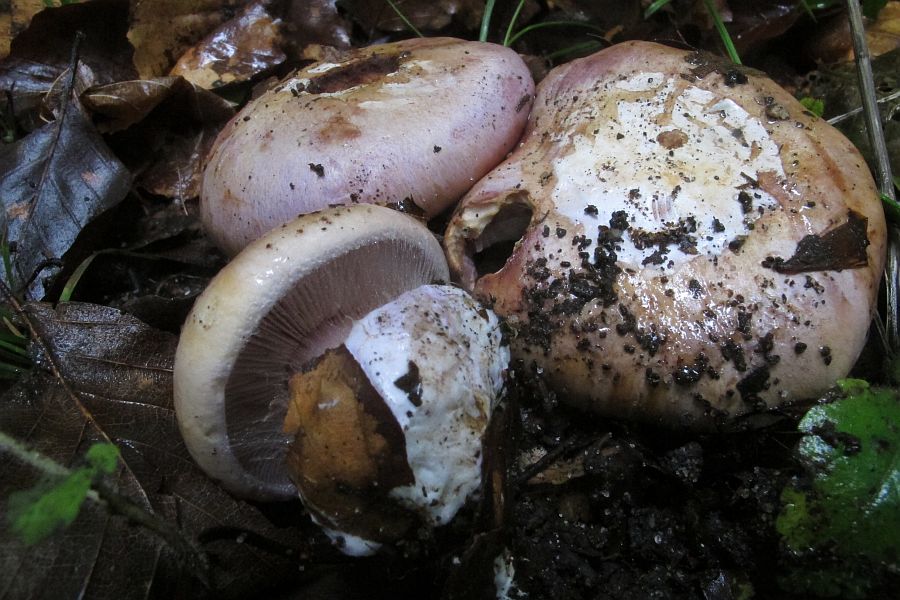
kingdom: Fungi
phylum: Basidiomycota
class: Agaricomycetes
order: Agaricales
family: Cortinariaceae
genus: Calonarius
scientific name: Calonarius selandicus
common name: sjællandsk slørhat
